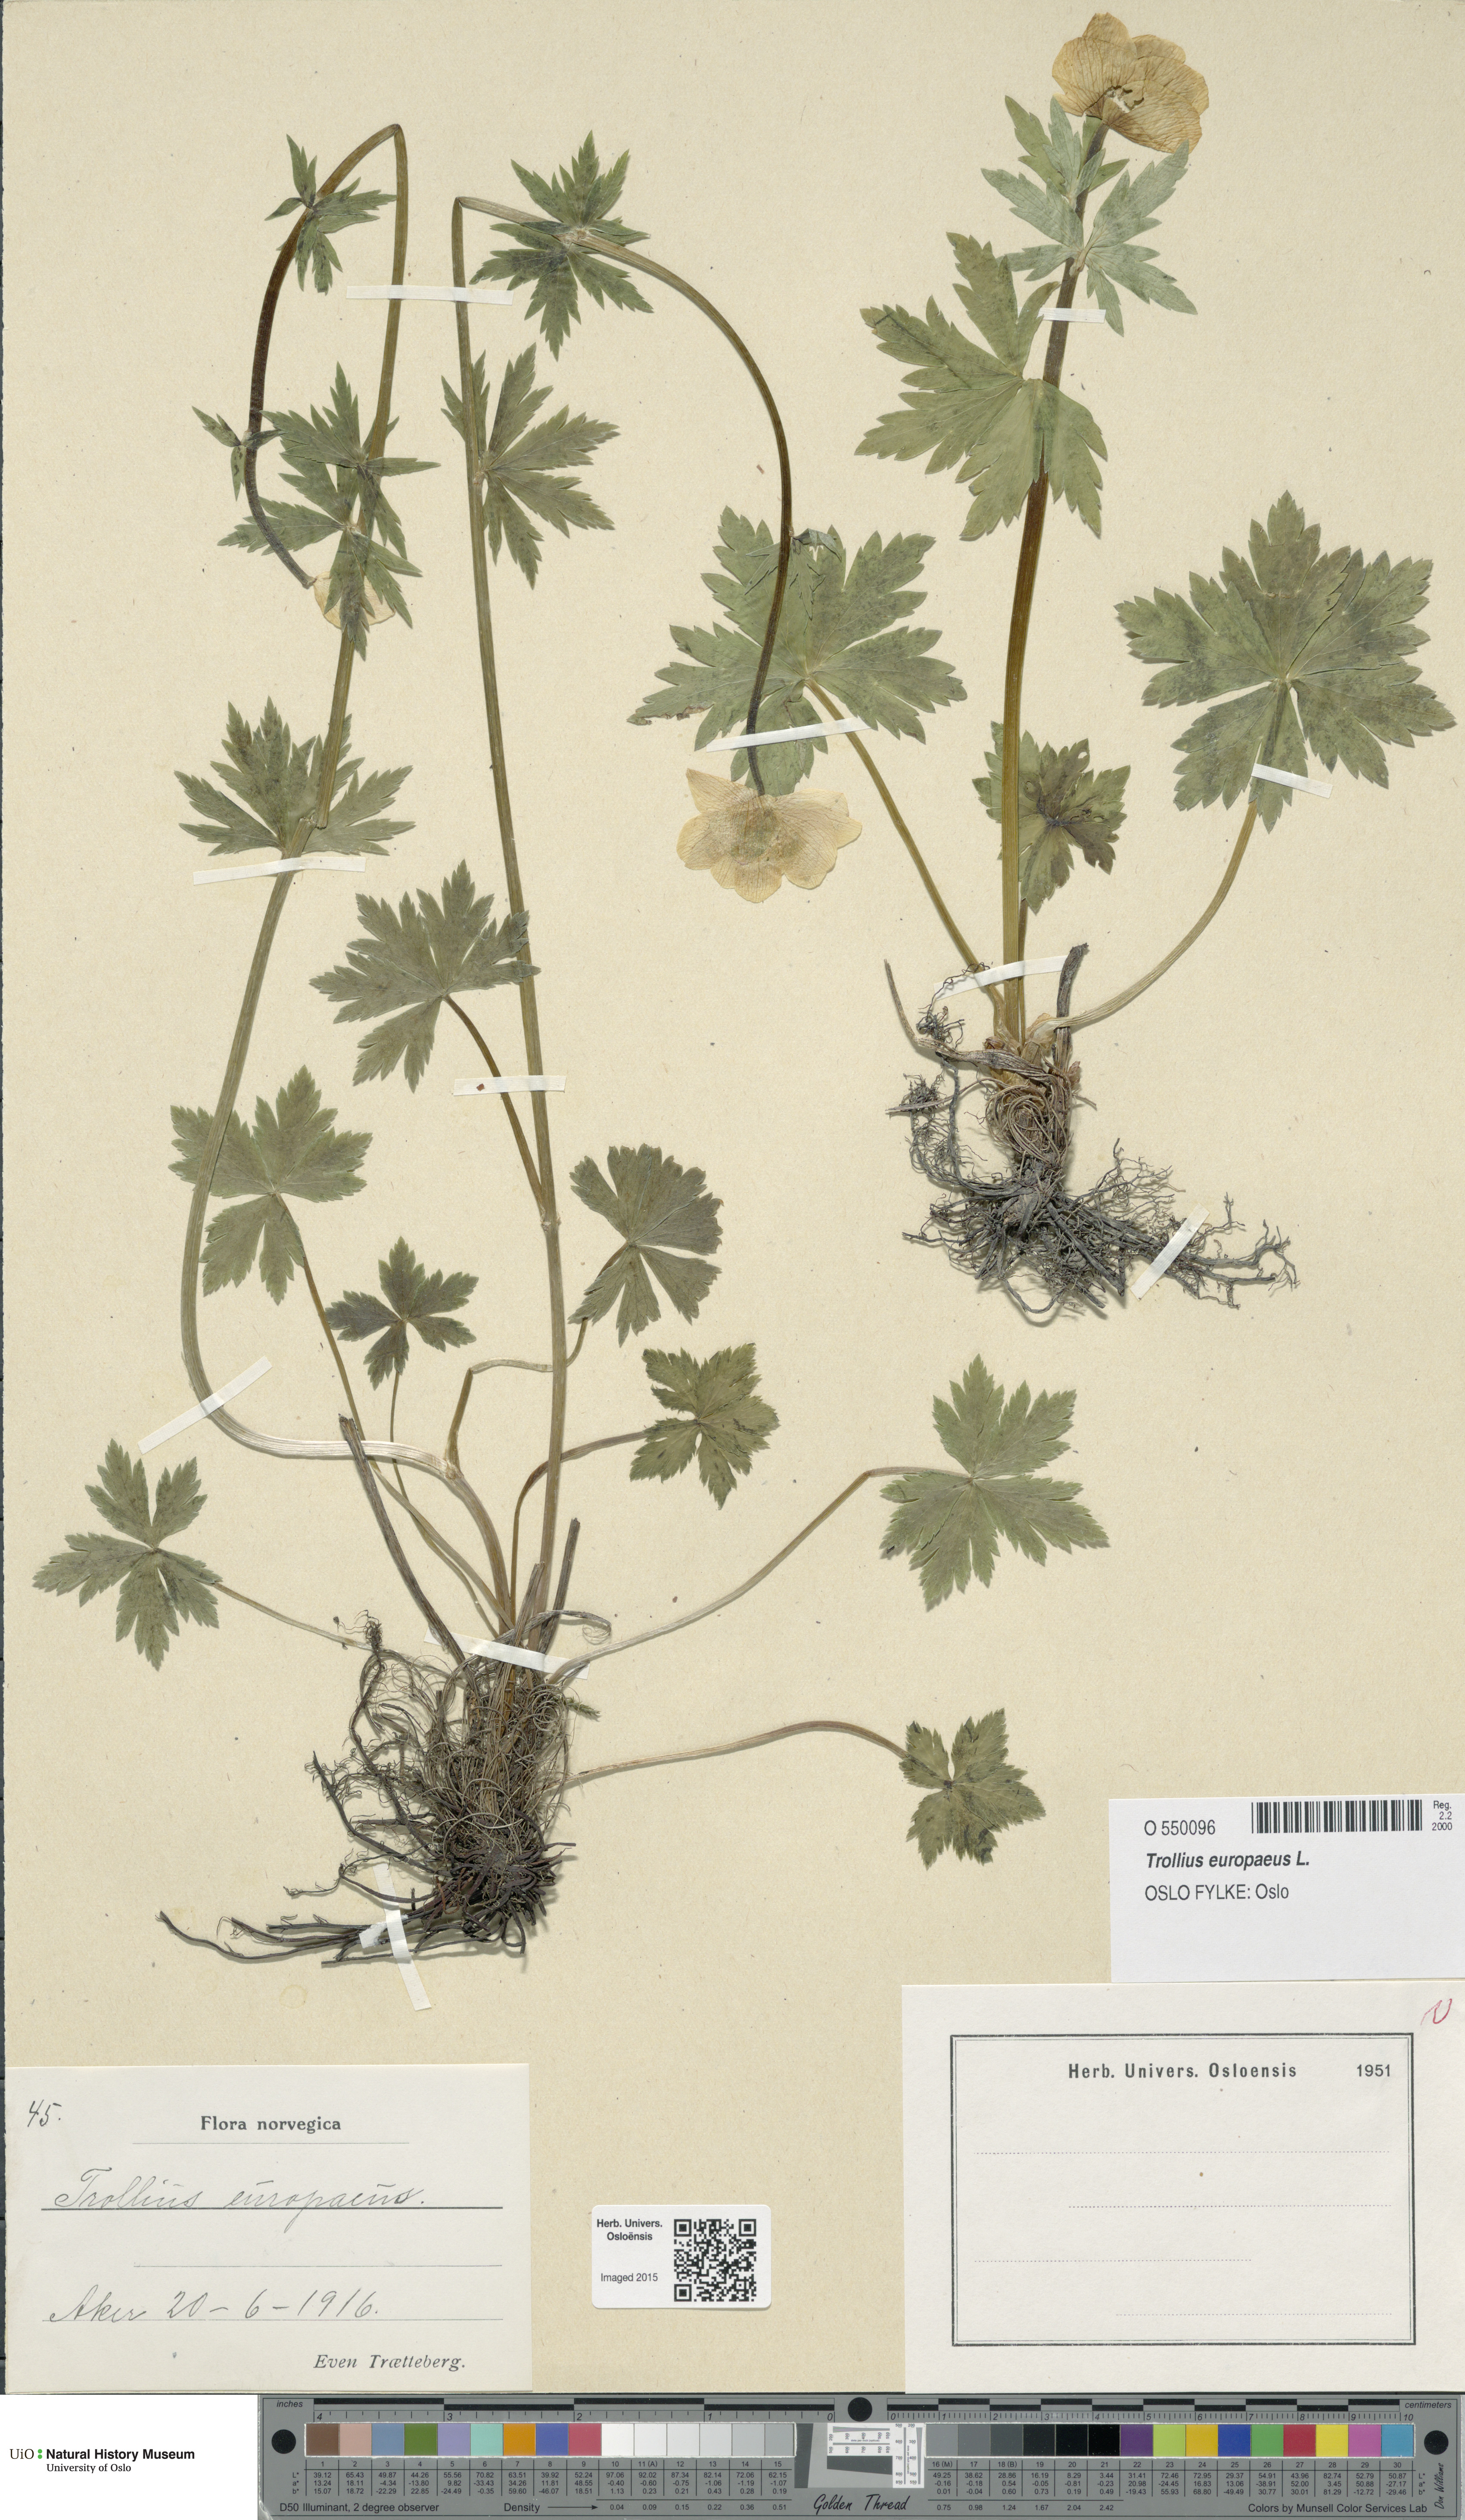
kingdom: Plantae
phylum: Tracheophyta
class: Magnoliopsida
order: Ranunculales
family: Ranunculaceae
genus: Trollius
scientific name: Trollius europaeus
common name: European globeflower
